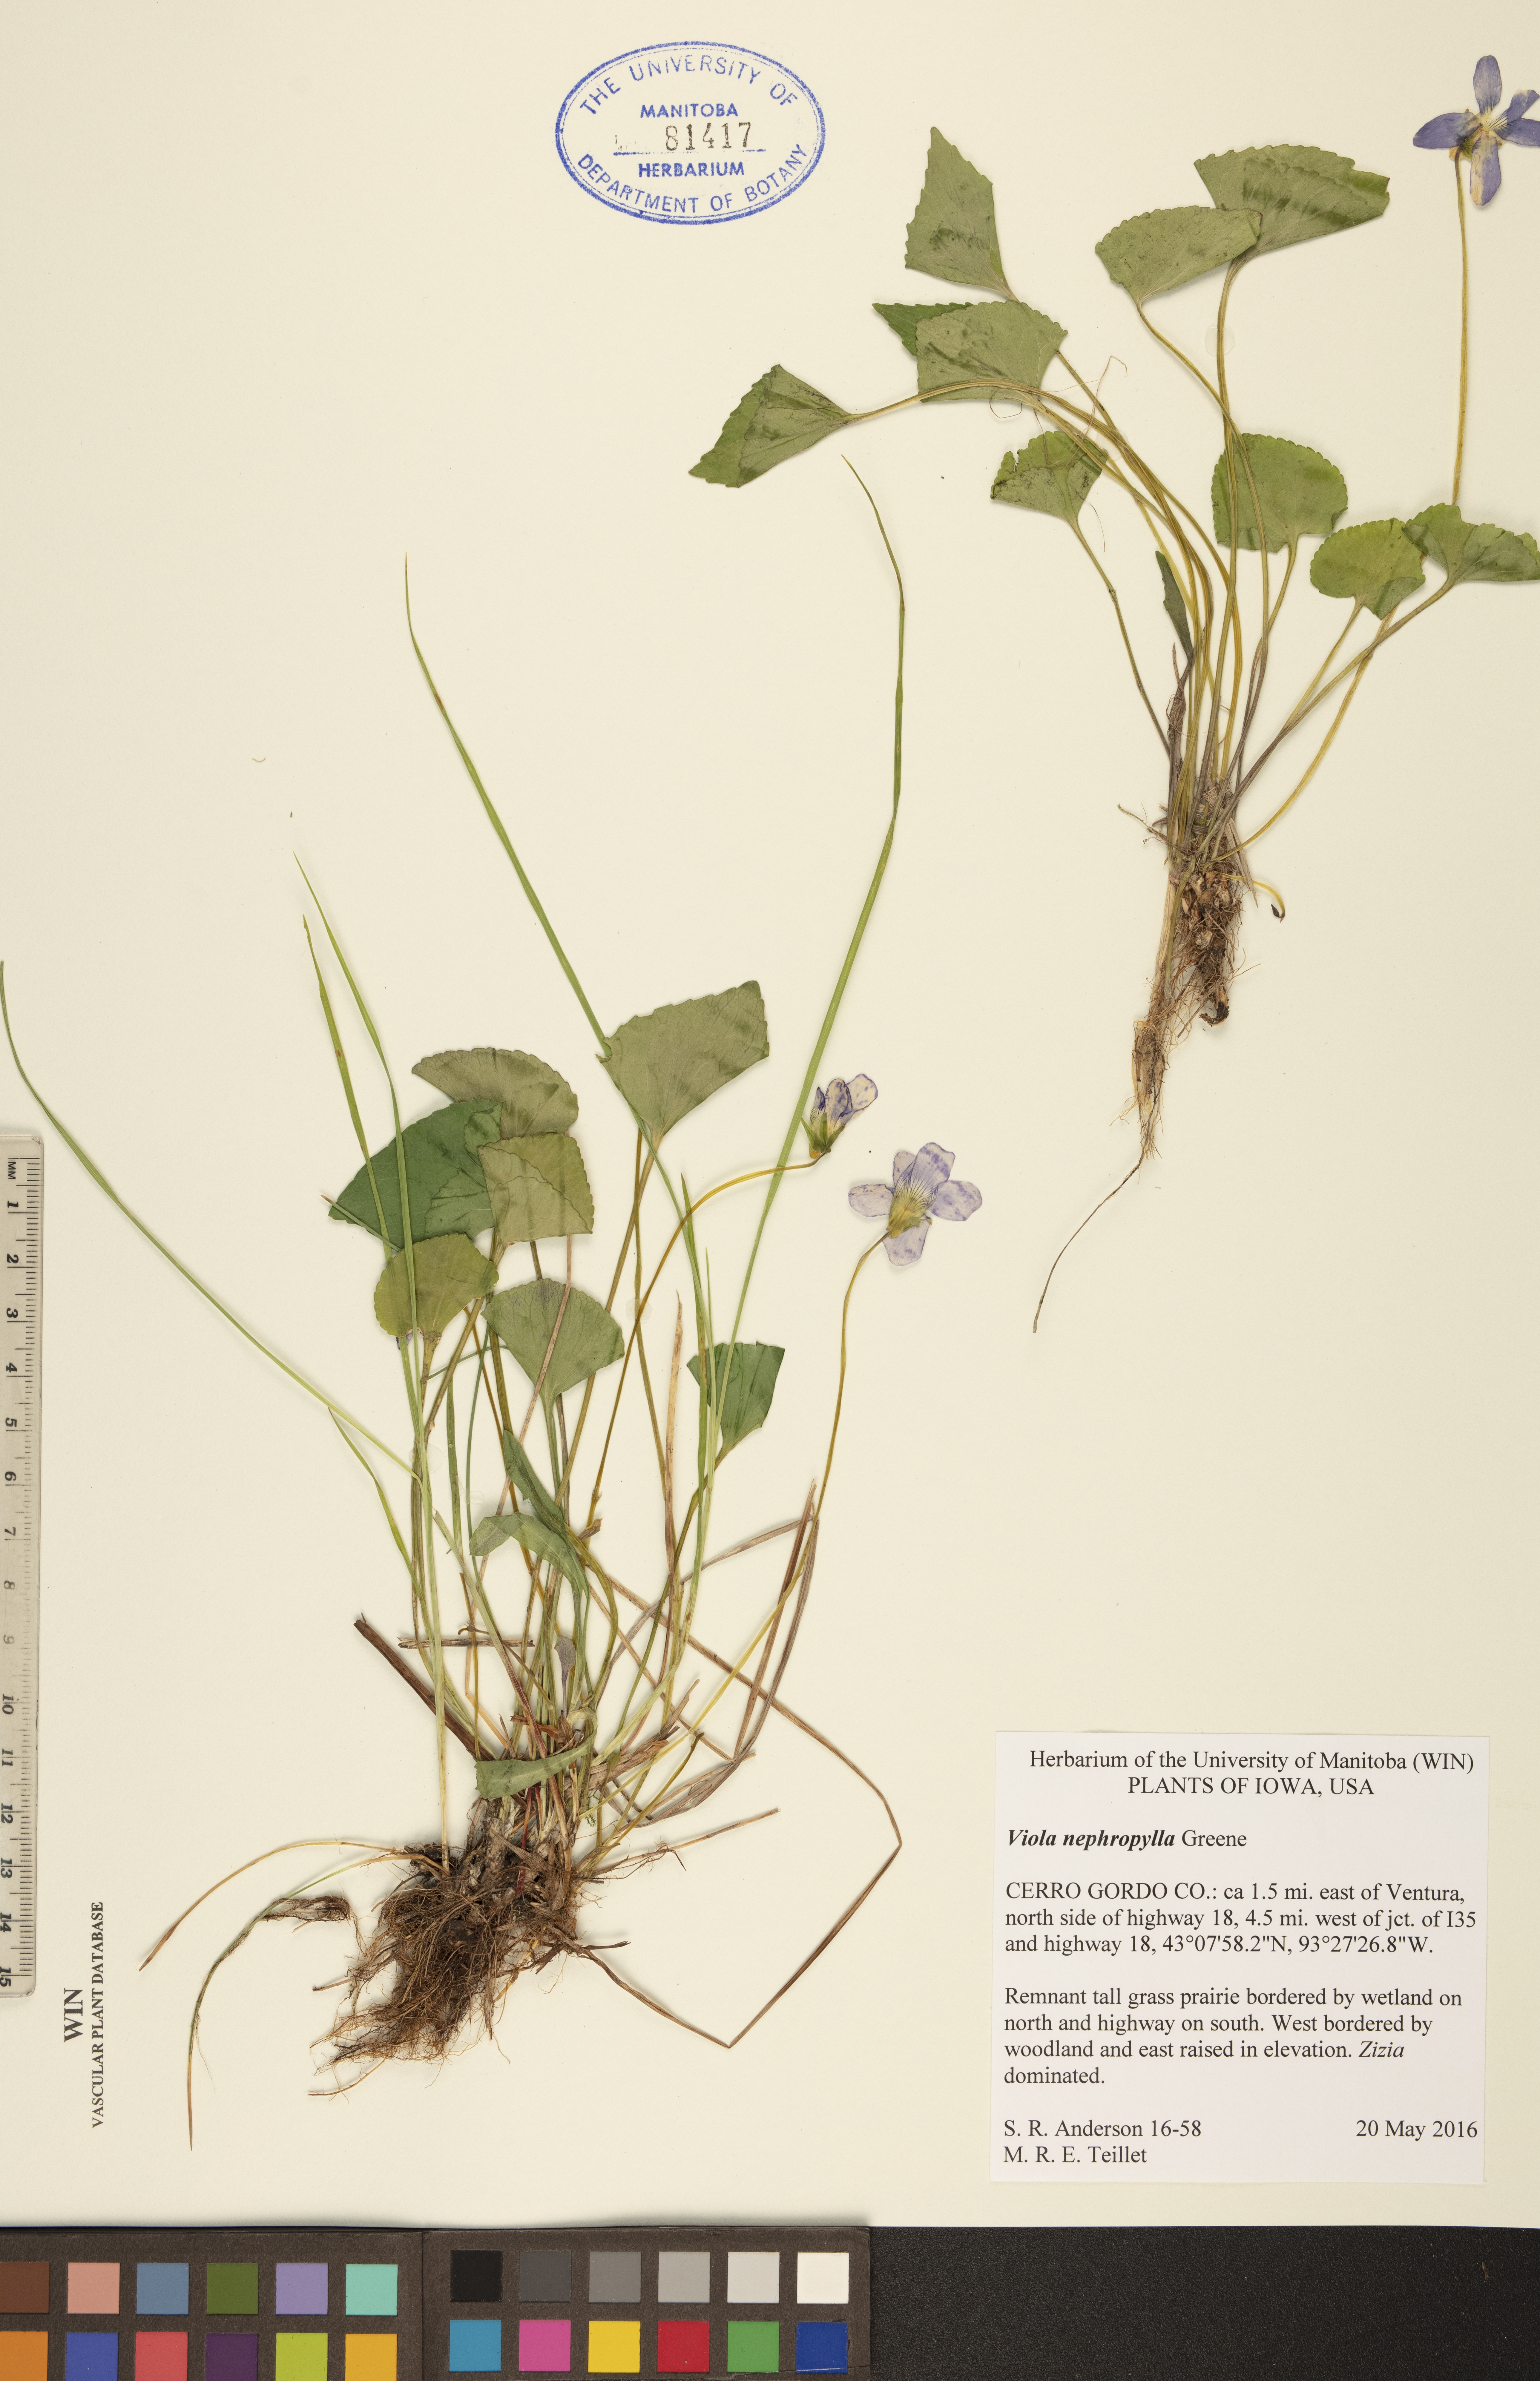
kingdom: Plantae
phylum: Tracheophyta
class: Magnoliopsida
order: Malpighiales
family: Violaceae
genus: Viola
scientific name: Viola nephrophylla
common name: Blue meadow violet
